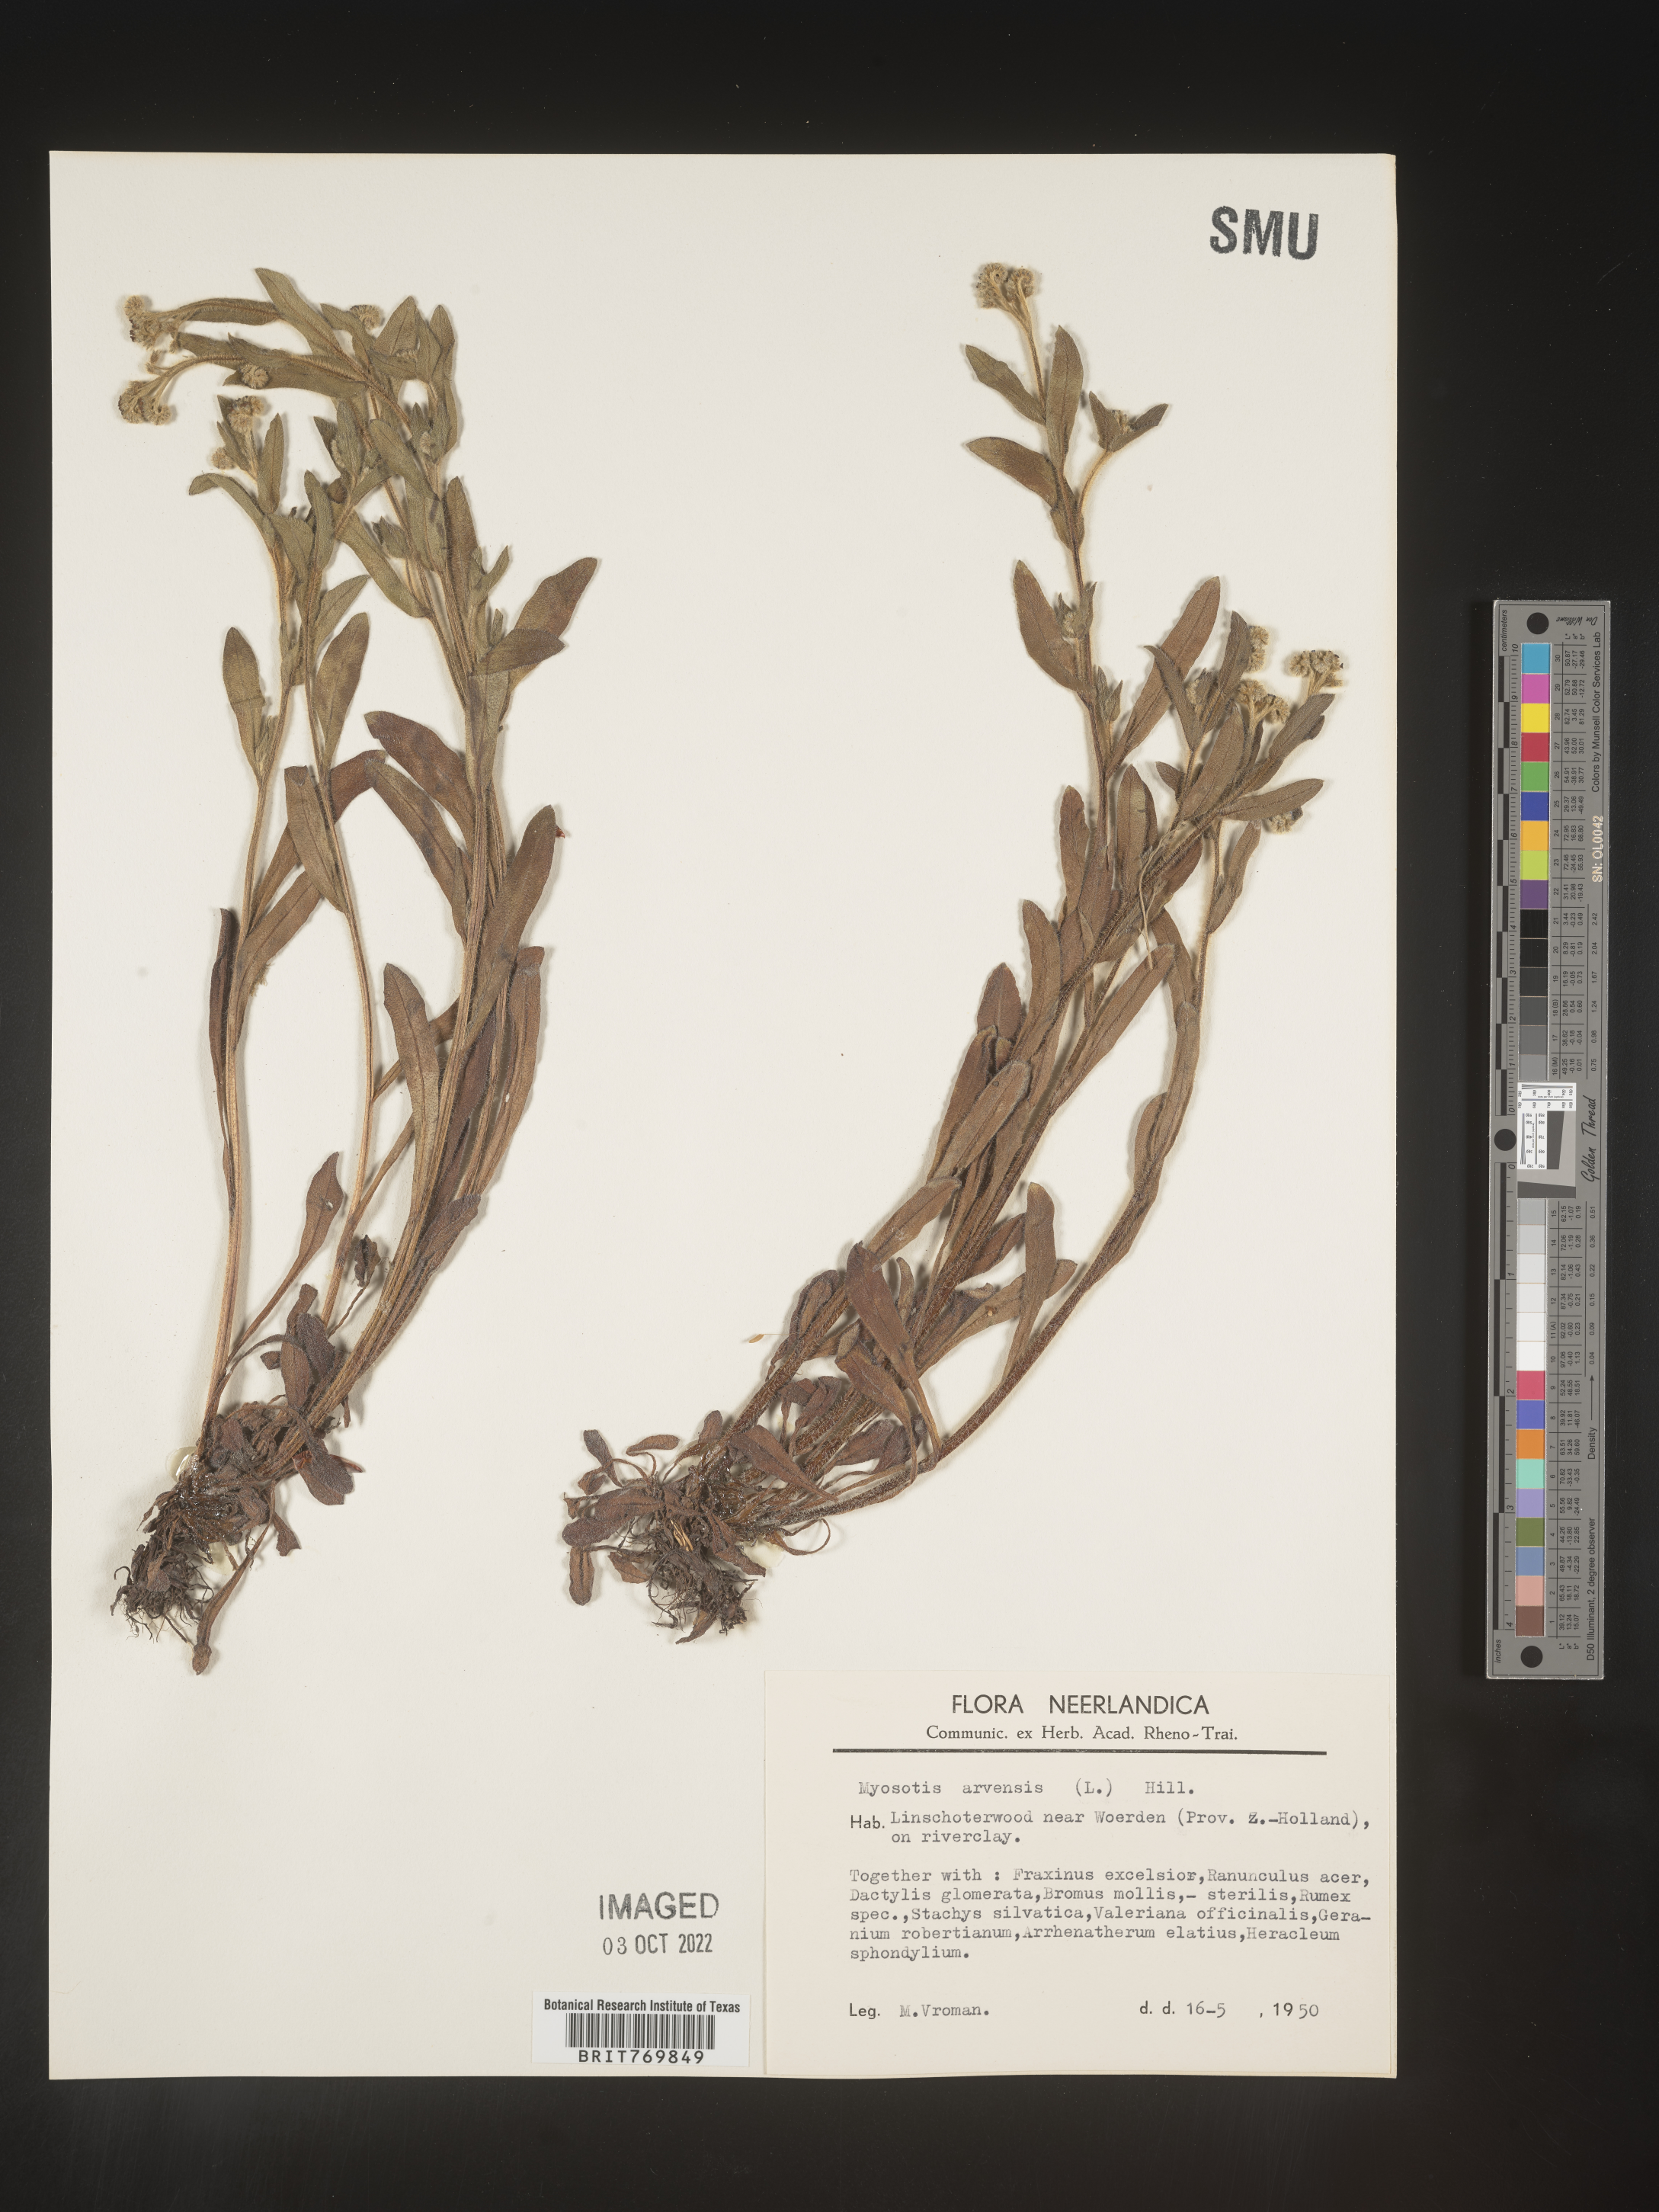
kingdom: Plantae
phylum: Tracheophyta
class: Magnoliopsida
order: Boraginales
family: Boraginaceae
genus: Myosotis
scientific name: Myosotis
